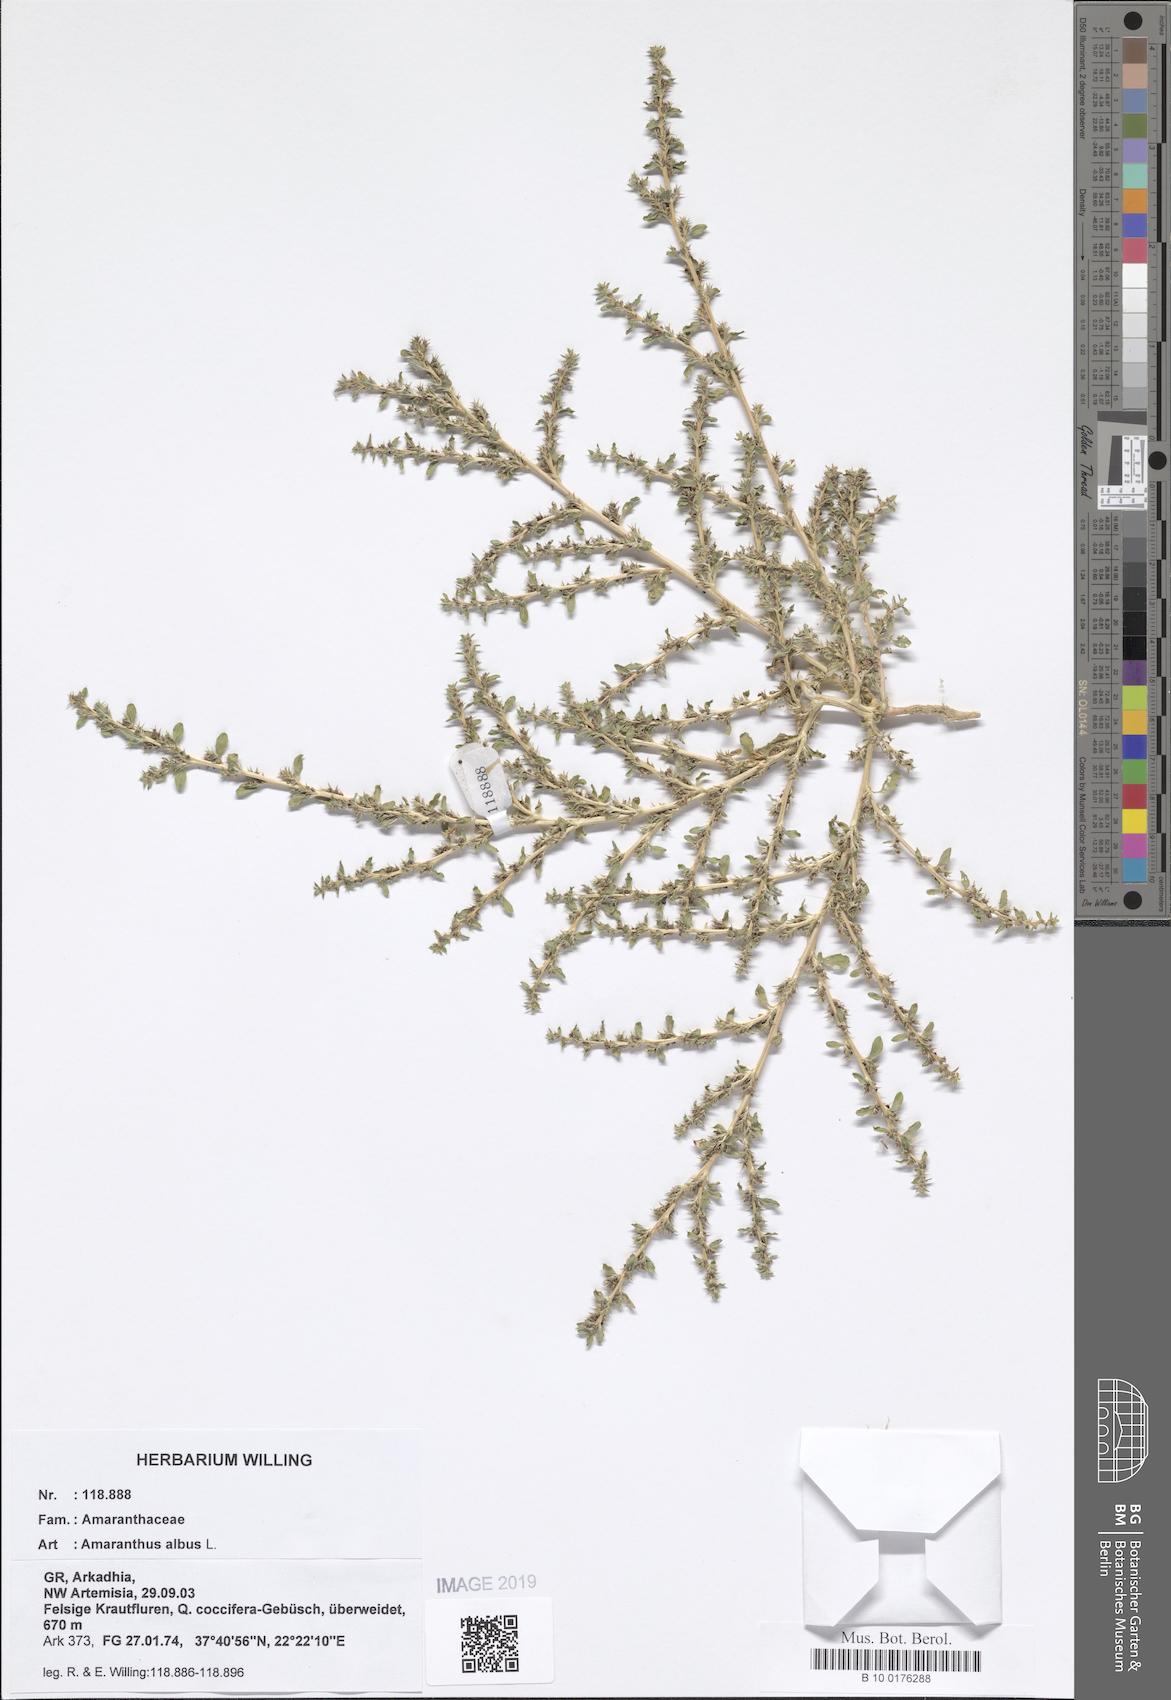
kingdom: Plantae
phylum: Tracheophyta
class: Magnoliopsida
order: Caryophyllales
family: Amaranthaceae
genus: Amaranthus
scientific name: Amaranthus albus
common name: White pigweed
